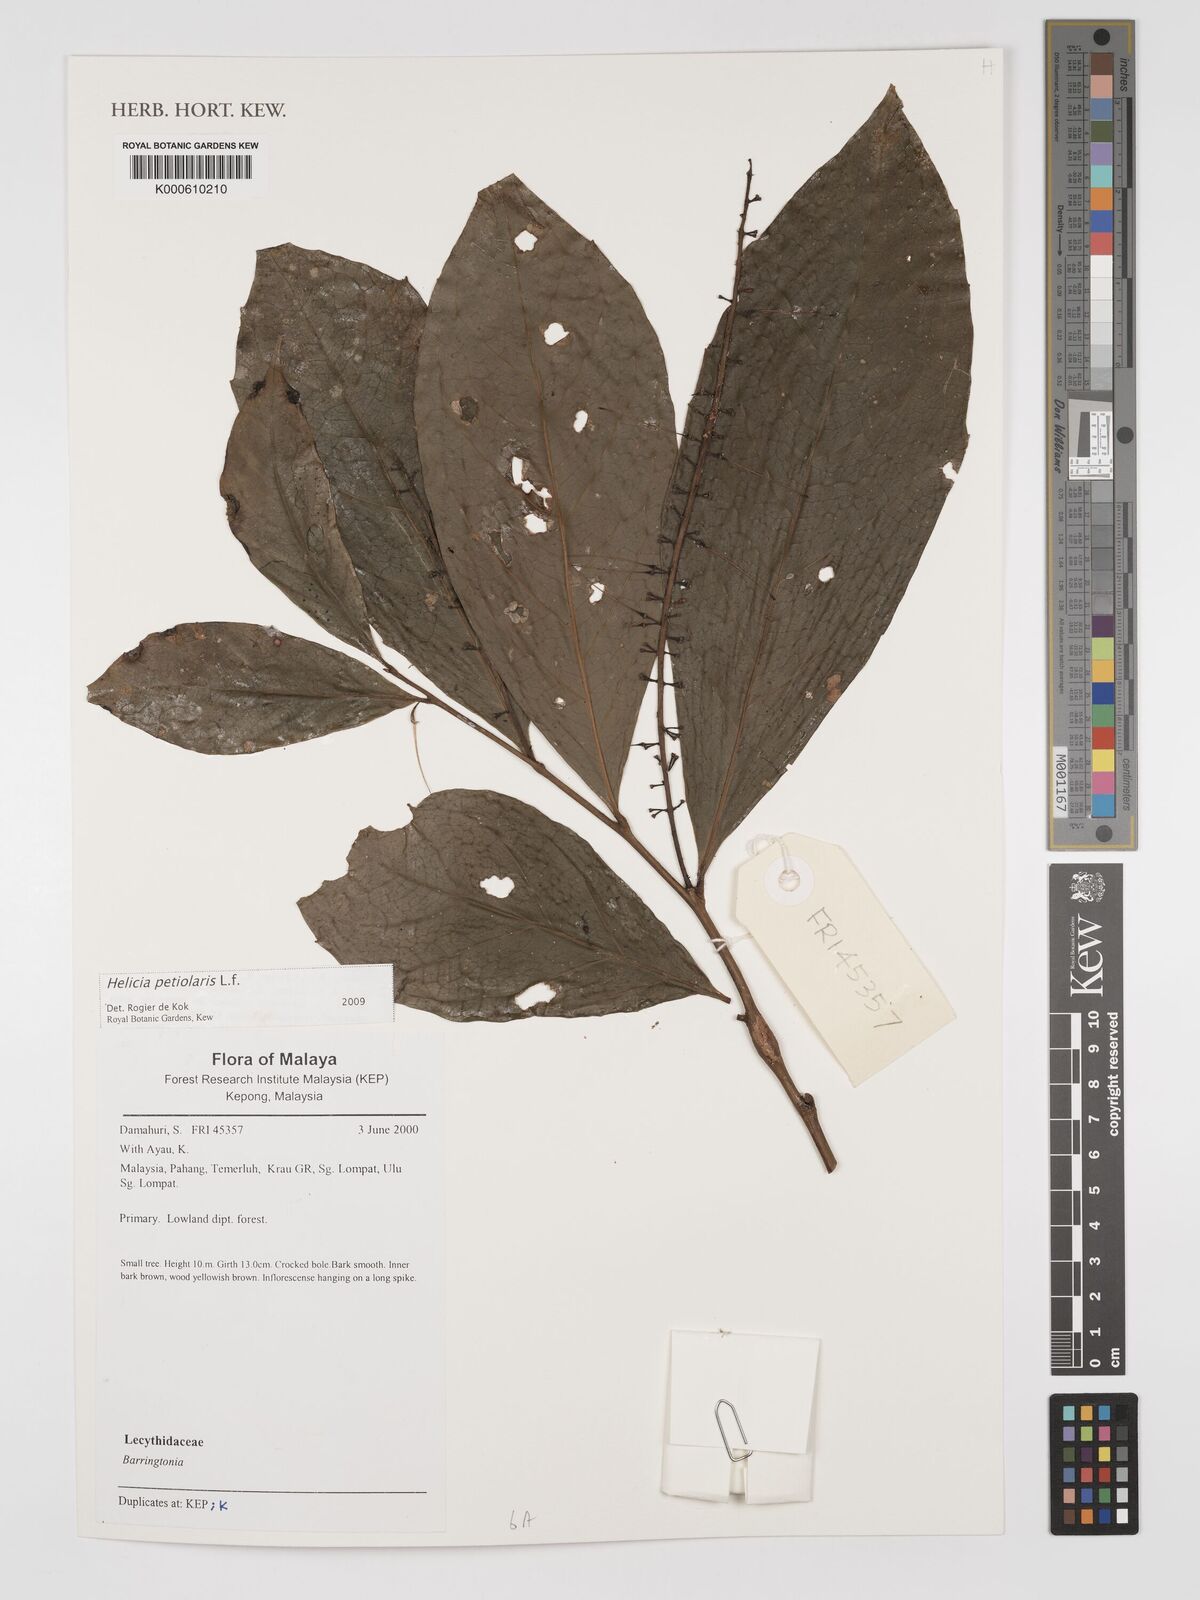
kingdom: Plantae
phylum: Tracheophyta
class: Magnoliopsida
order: Proteales
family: Proteaceae
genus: Helicia
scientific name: Helicia petiolaris
